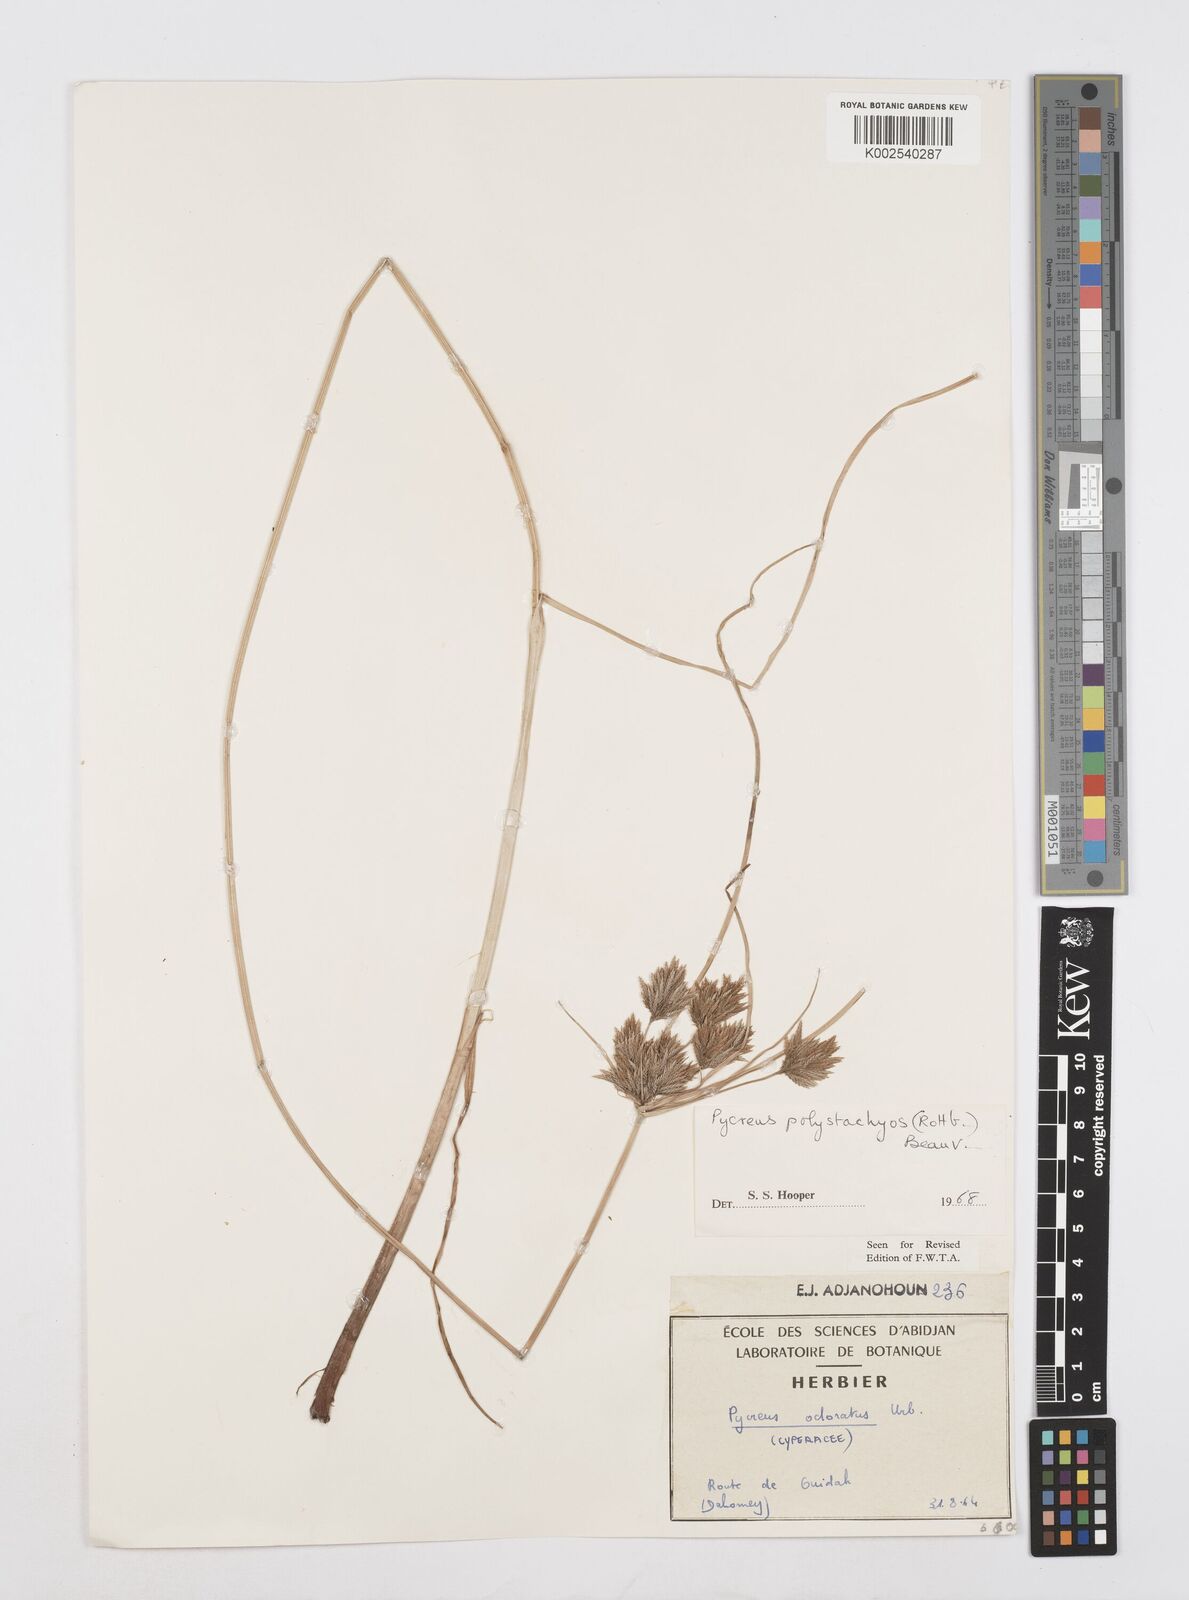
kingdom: Plantae
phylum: Tracheophyta
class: Liliopsida
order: Poales
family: Cyperaceae
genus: Cyperus
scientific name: Cyperus polystachyos
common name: Bunchy flat sedge
